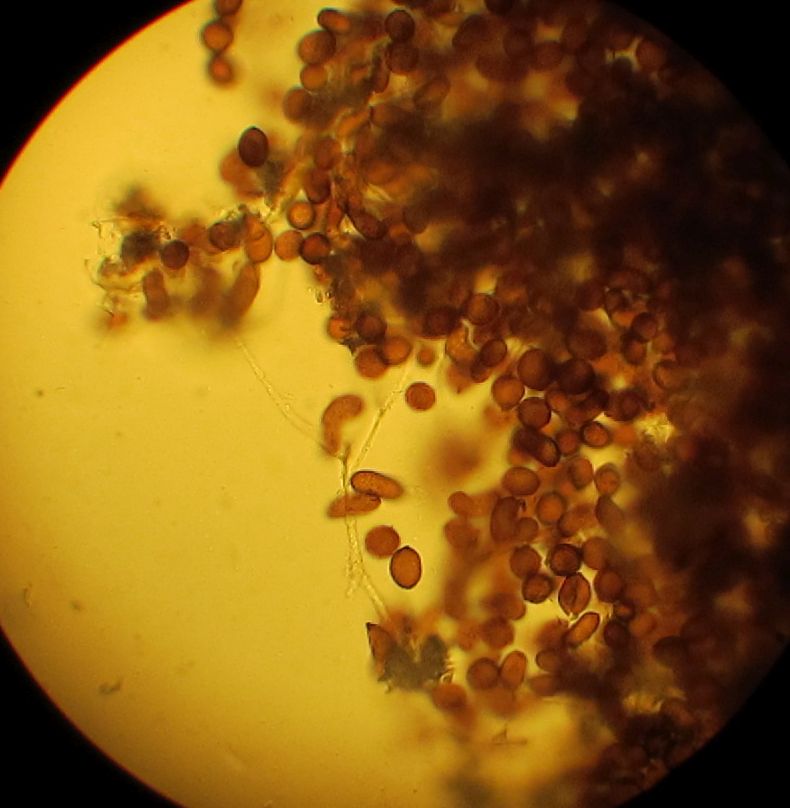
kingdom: Protozoa
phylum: Mycetozoa
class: Myxomycetes
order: Physarales
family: Didymiaceae
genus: Didymium
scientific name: Didymium squamulosum
